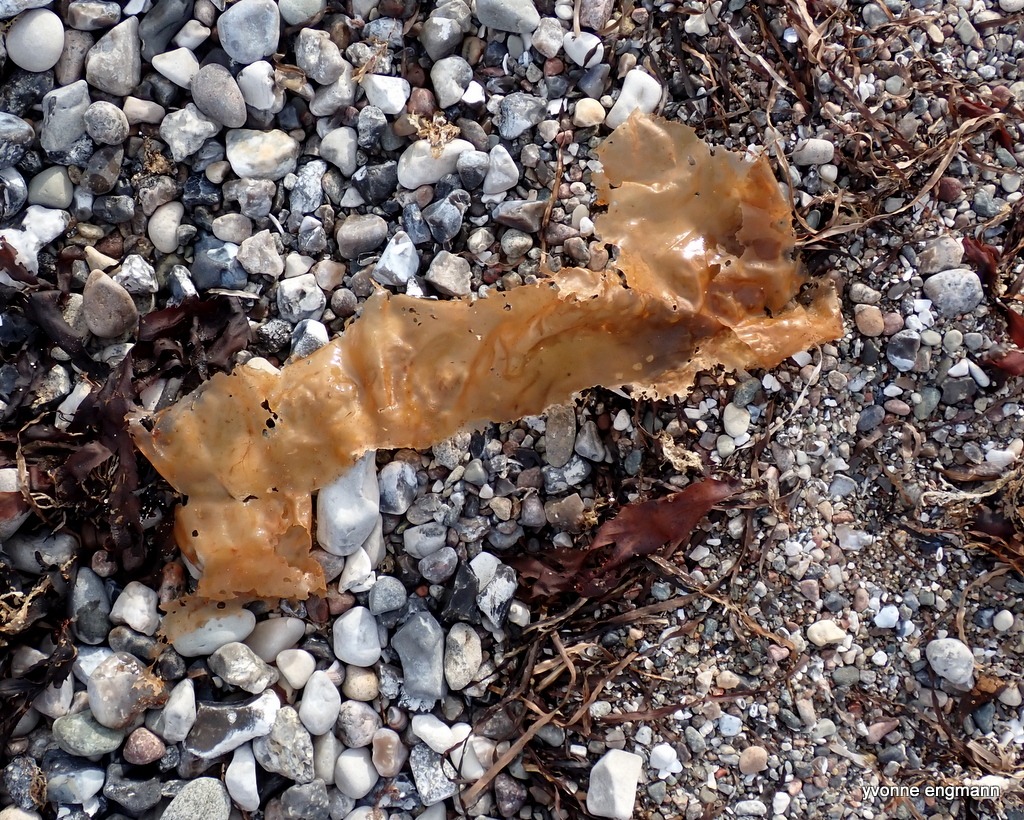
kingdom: Chromista
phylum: Ochrophyta
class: Phaeophyceae
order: Laminariales
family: Laminariaceae
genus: Saccharina
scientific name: Saccharina latissima
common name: Sukkertang
